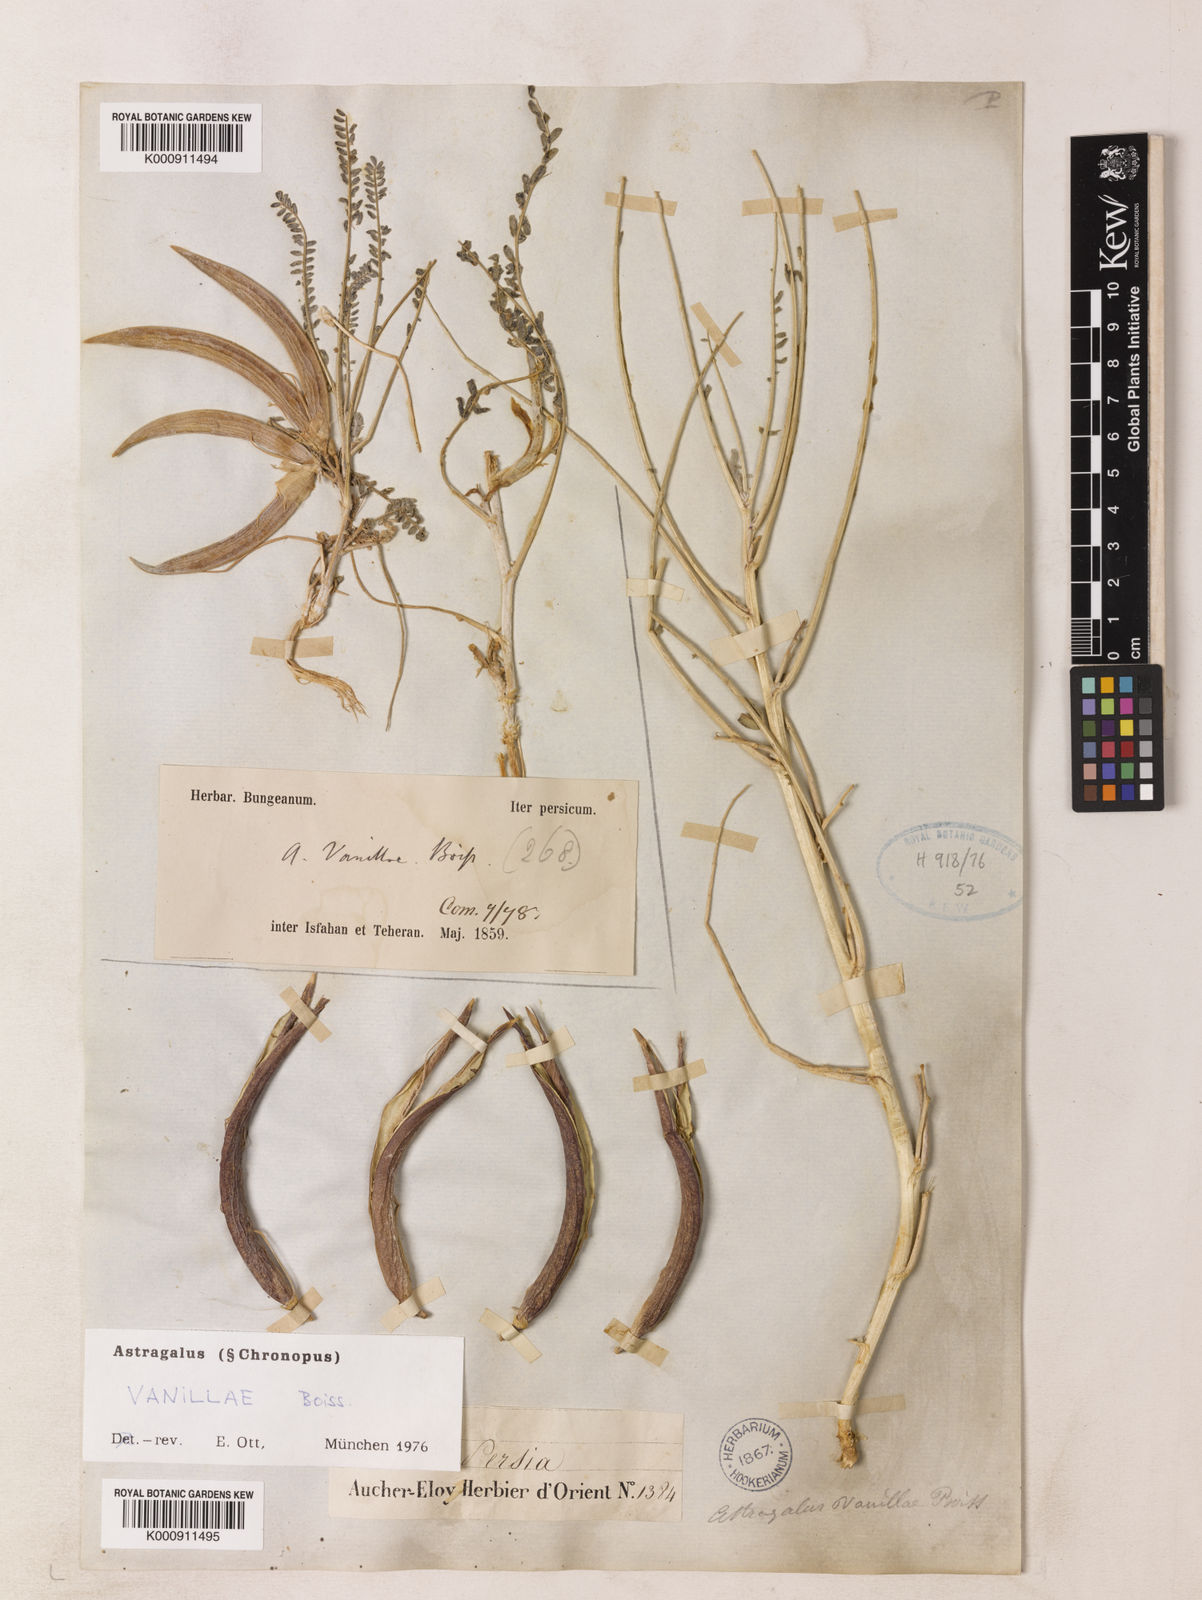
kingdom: Plantae
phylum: Tracheophyta
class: Magnoliopsida
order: Fabales
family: Fabaceae
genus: Astragalus
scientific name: Astragalus vanillae
